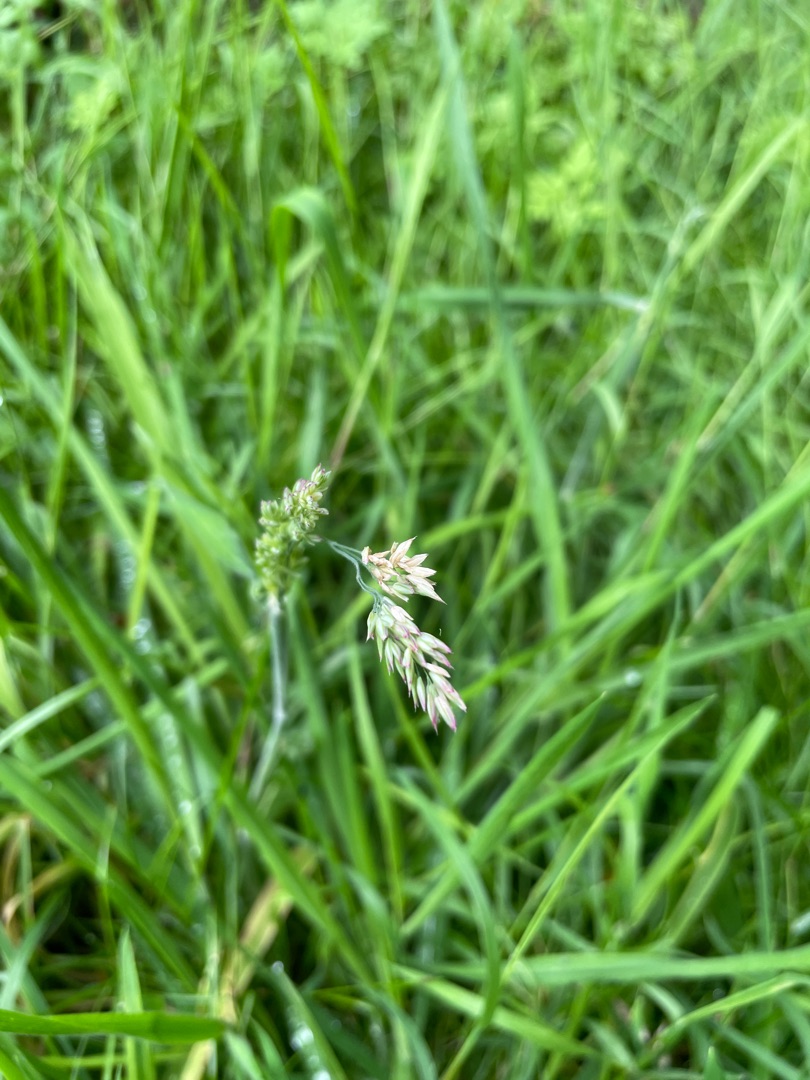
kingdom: Plantae
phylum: Tracheophyta
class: Liliopsida
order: Poales
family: Poaceae
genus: Holcus
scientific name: Holcus lanatus
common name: Fløjlsgræs
